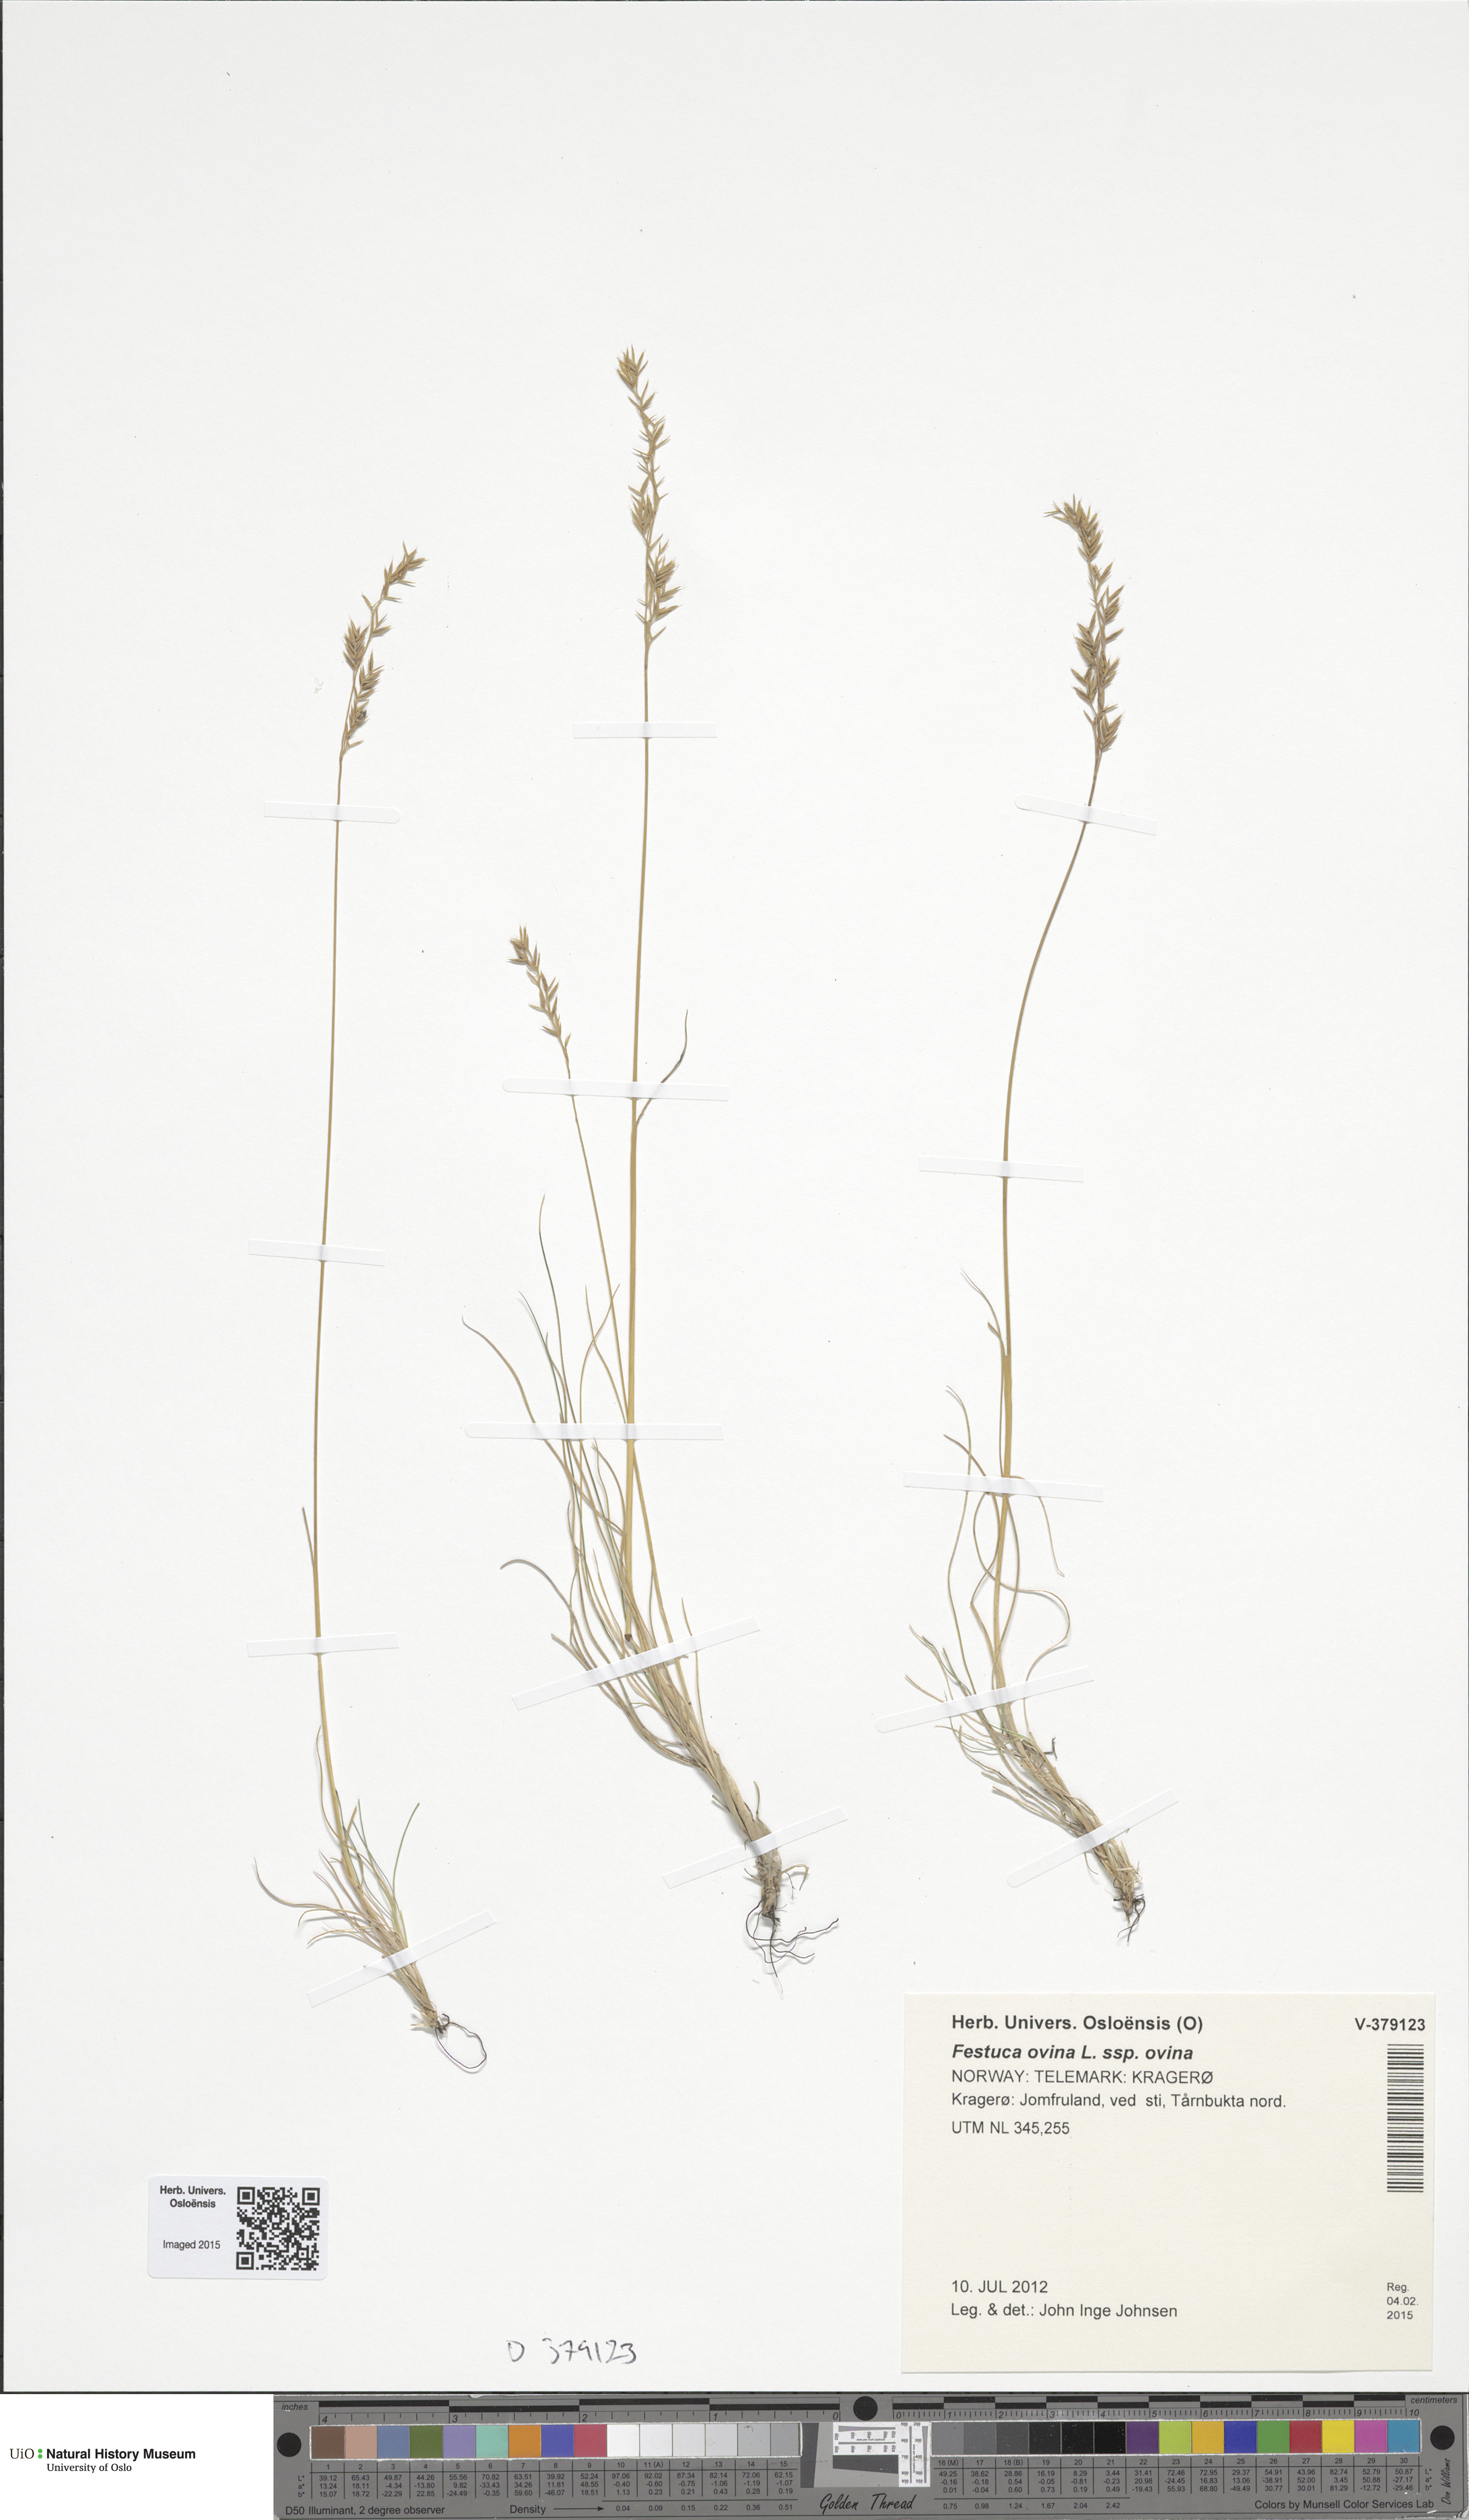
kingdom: Plantae
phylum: Tracheophyta
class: Liliopsida
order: Poales
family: Poaceae
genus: Festuca
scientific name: Festuca ovina
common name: Sheep fescue
